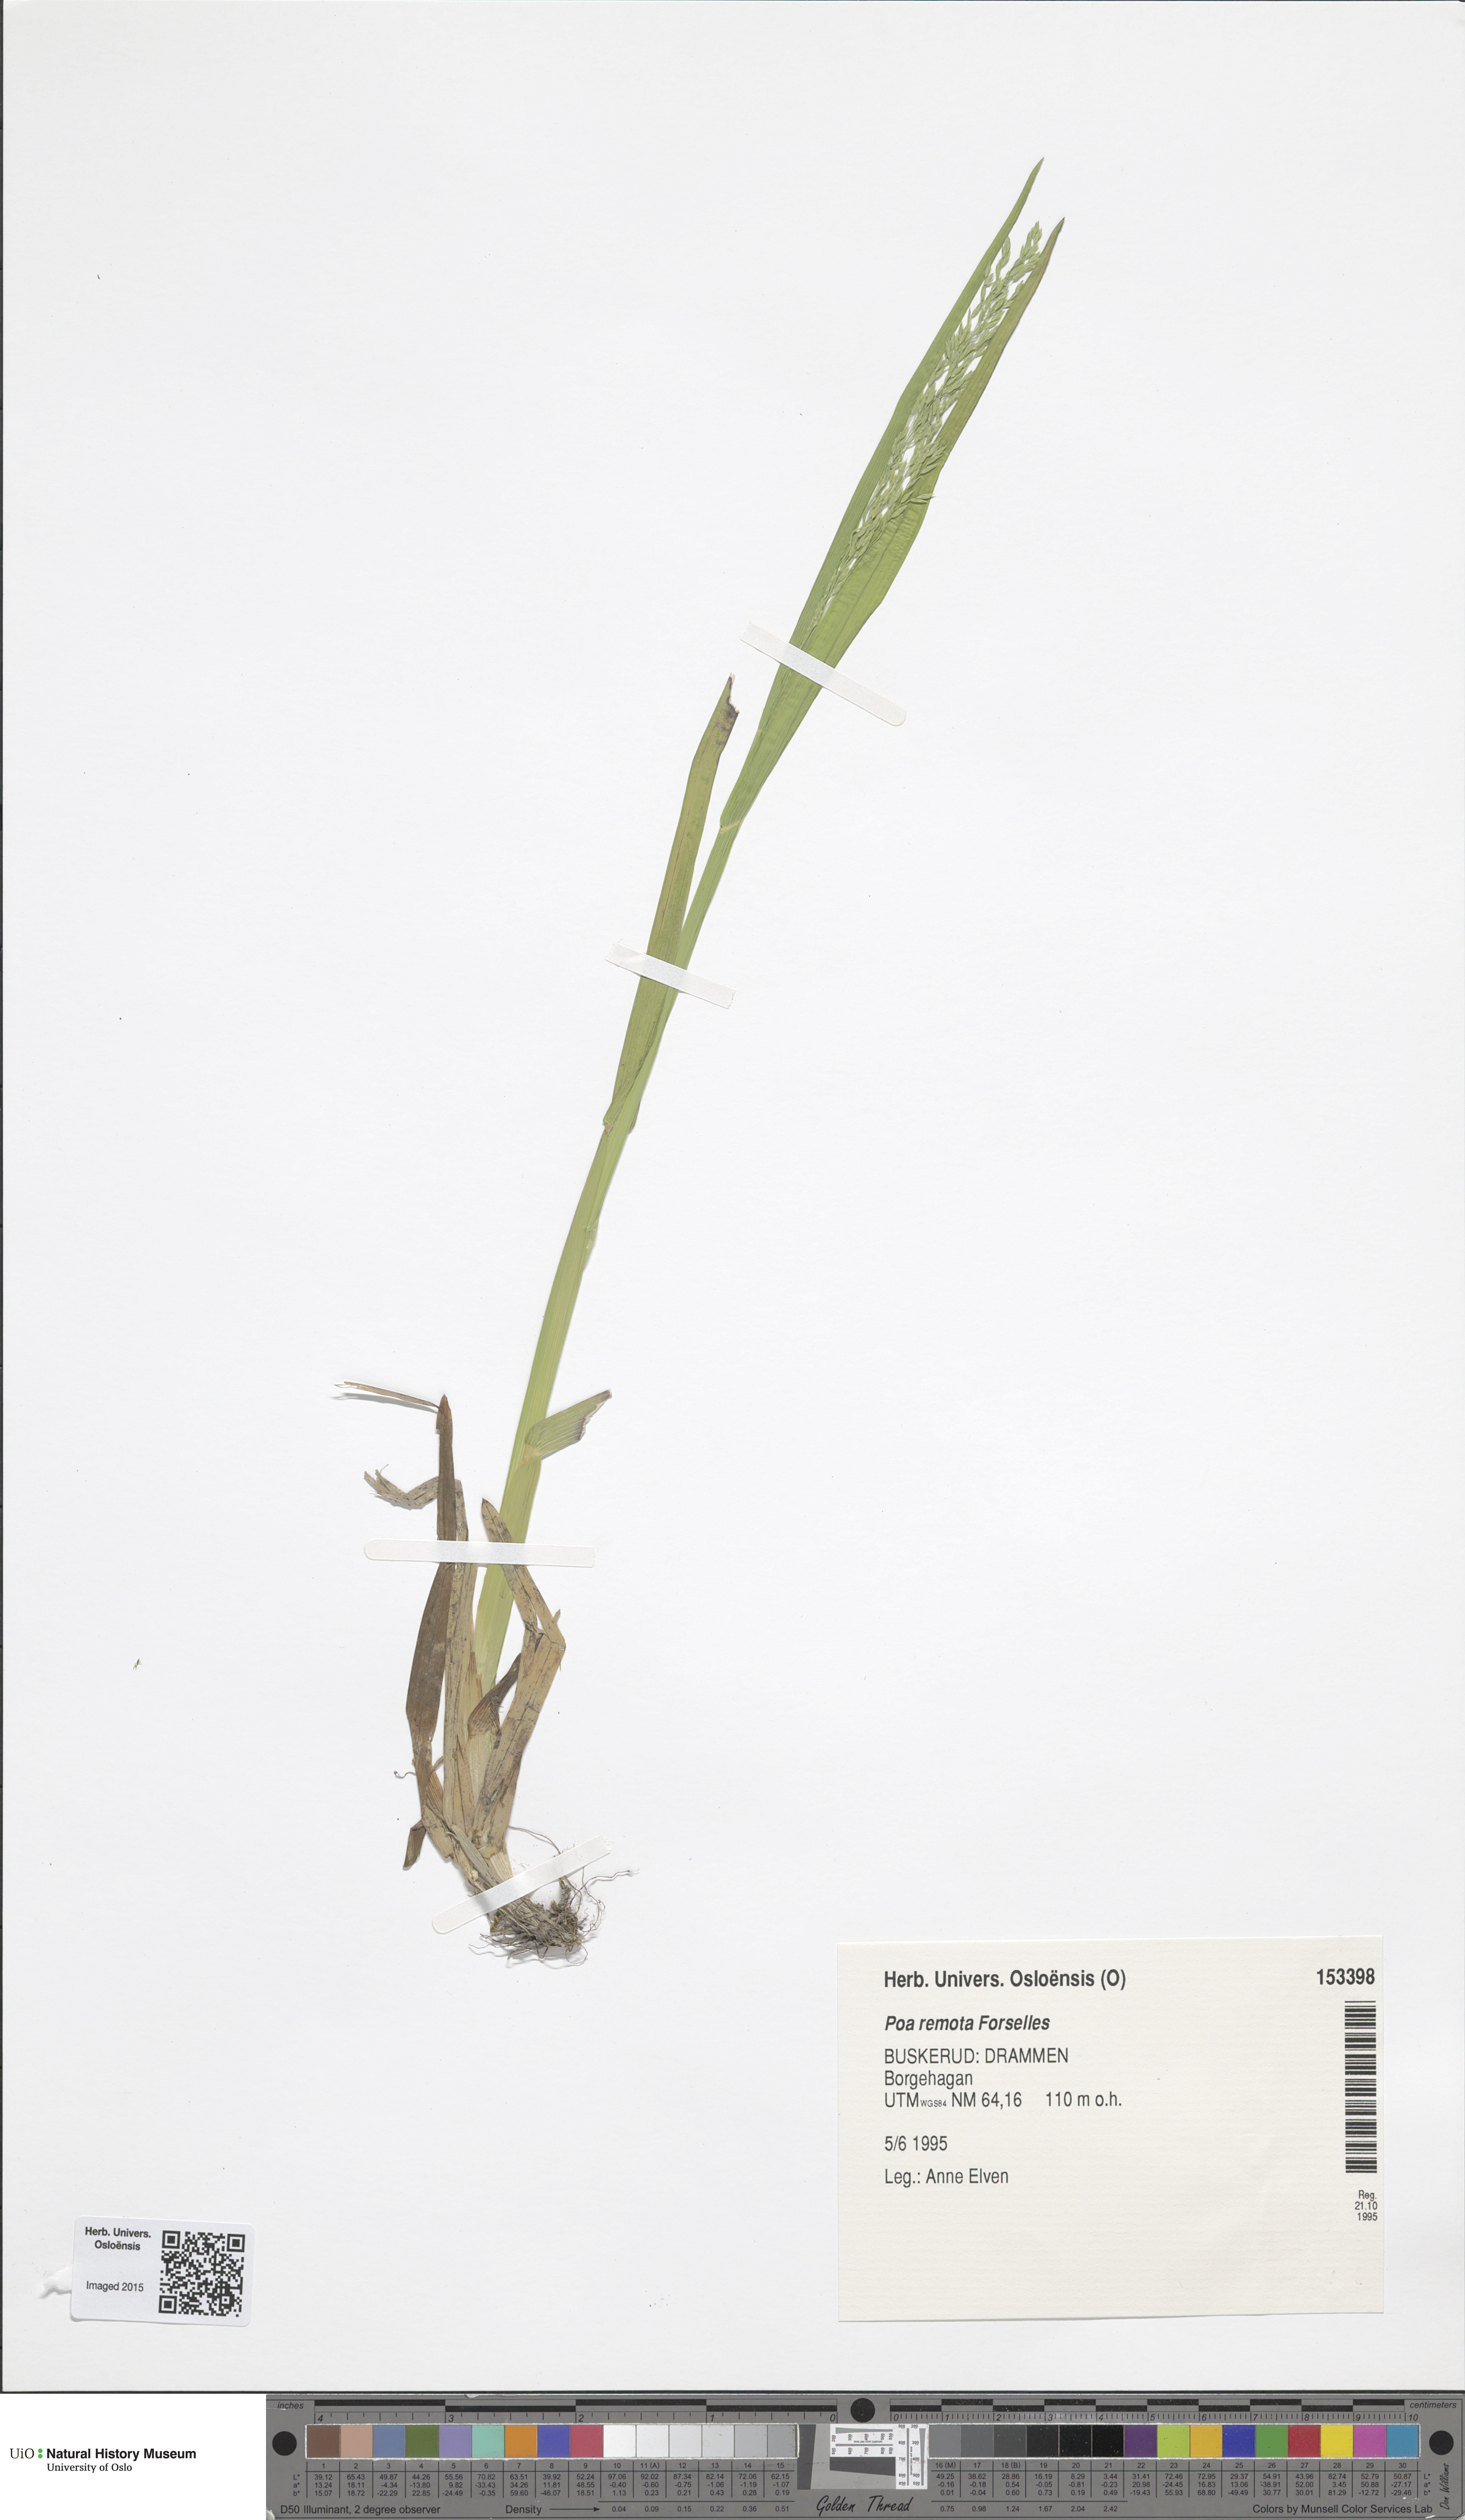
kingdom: Plantae
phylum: Tracheophyta
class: Liliopsida
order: Poales
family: Poaceae
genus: Poa
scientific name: Poa remota
